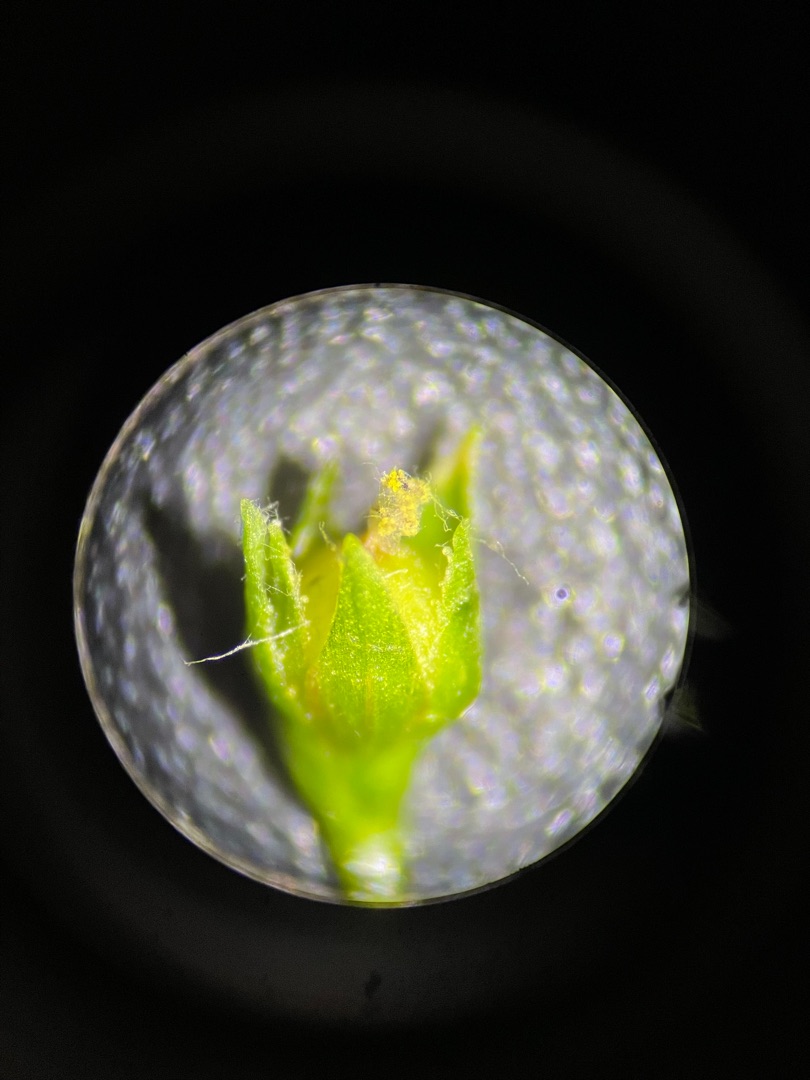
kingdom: Plantae
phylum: Tracheophyta
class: Magnoliopsida
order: Malpighiales
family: Linaceae
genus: Linum
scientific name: Linum catharticum
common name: Vild hør
